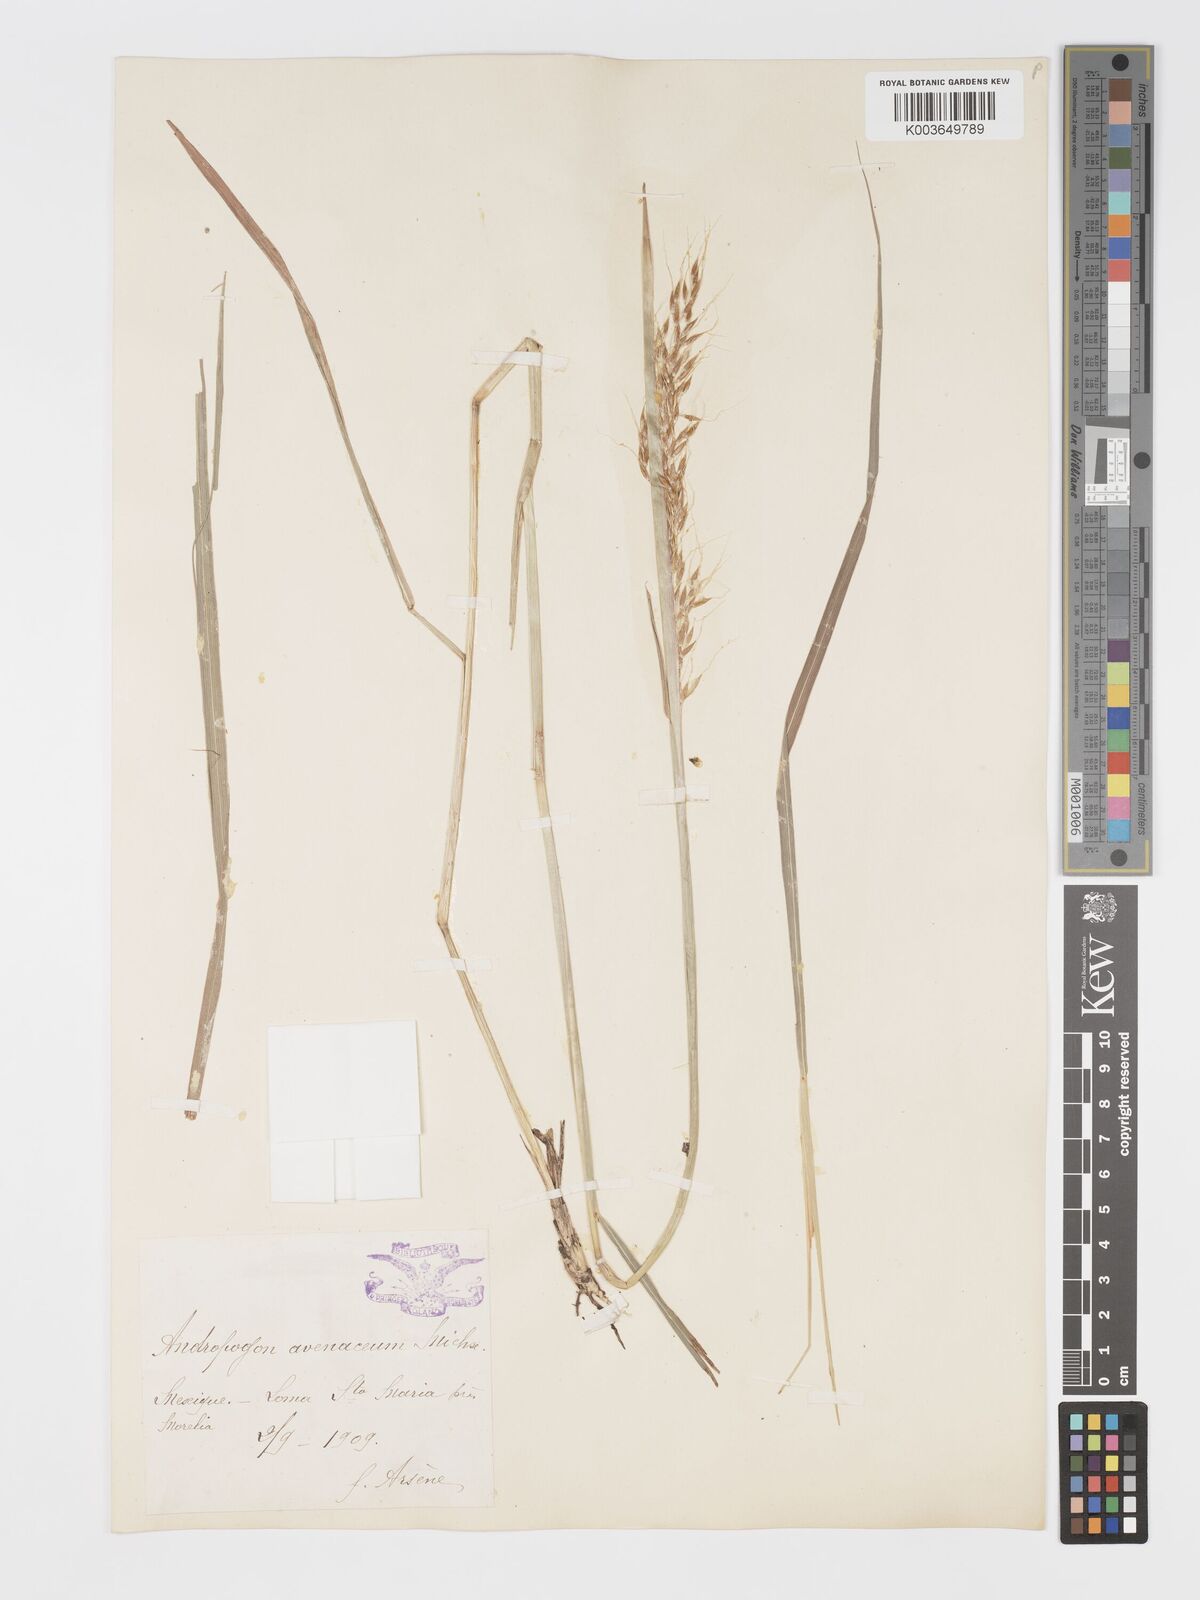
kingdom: Plantae
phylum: Tracheophyta
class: Liliopsida
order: Poales
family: Poaceae
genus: Sorghastrum
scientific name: Sorghastrum nutans
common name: Indian grass
